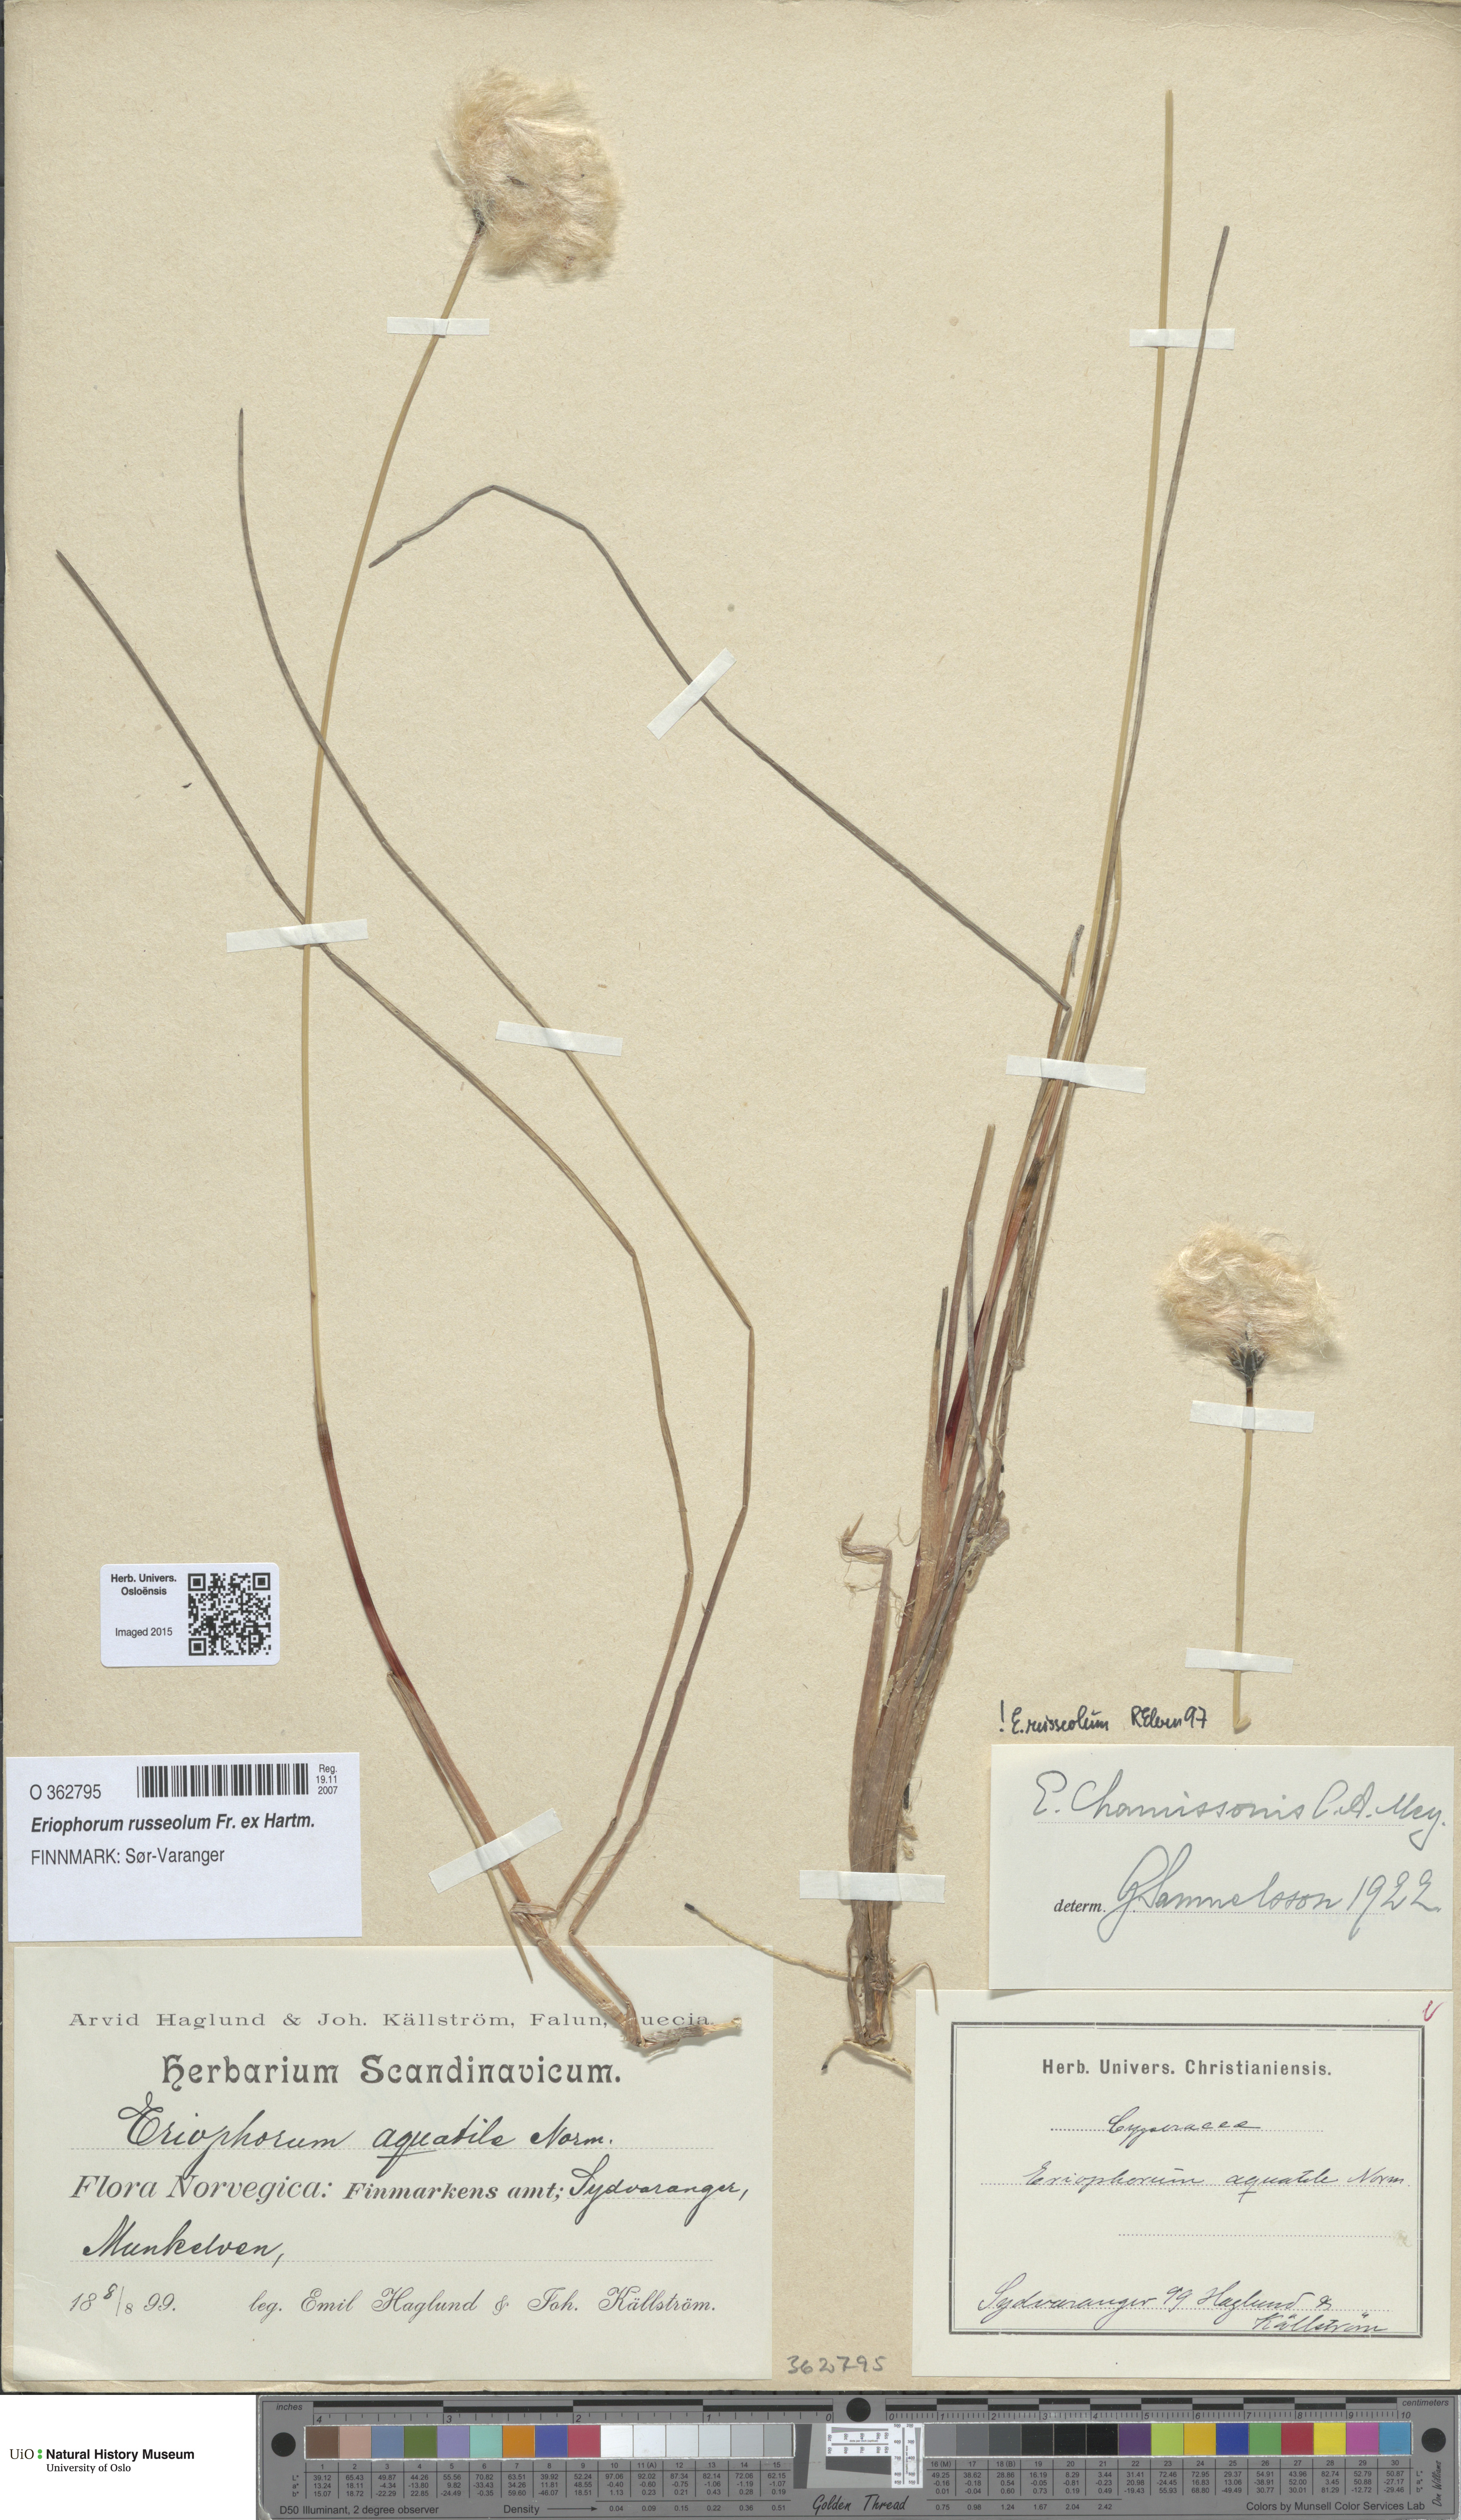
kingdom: Plantae
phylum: Tracheophyta
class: Liliopsida
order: Poales
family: Cyperaceae
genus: Eriophorum
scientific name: Eriophorum russeolum
